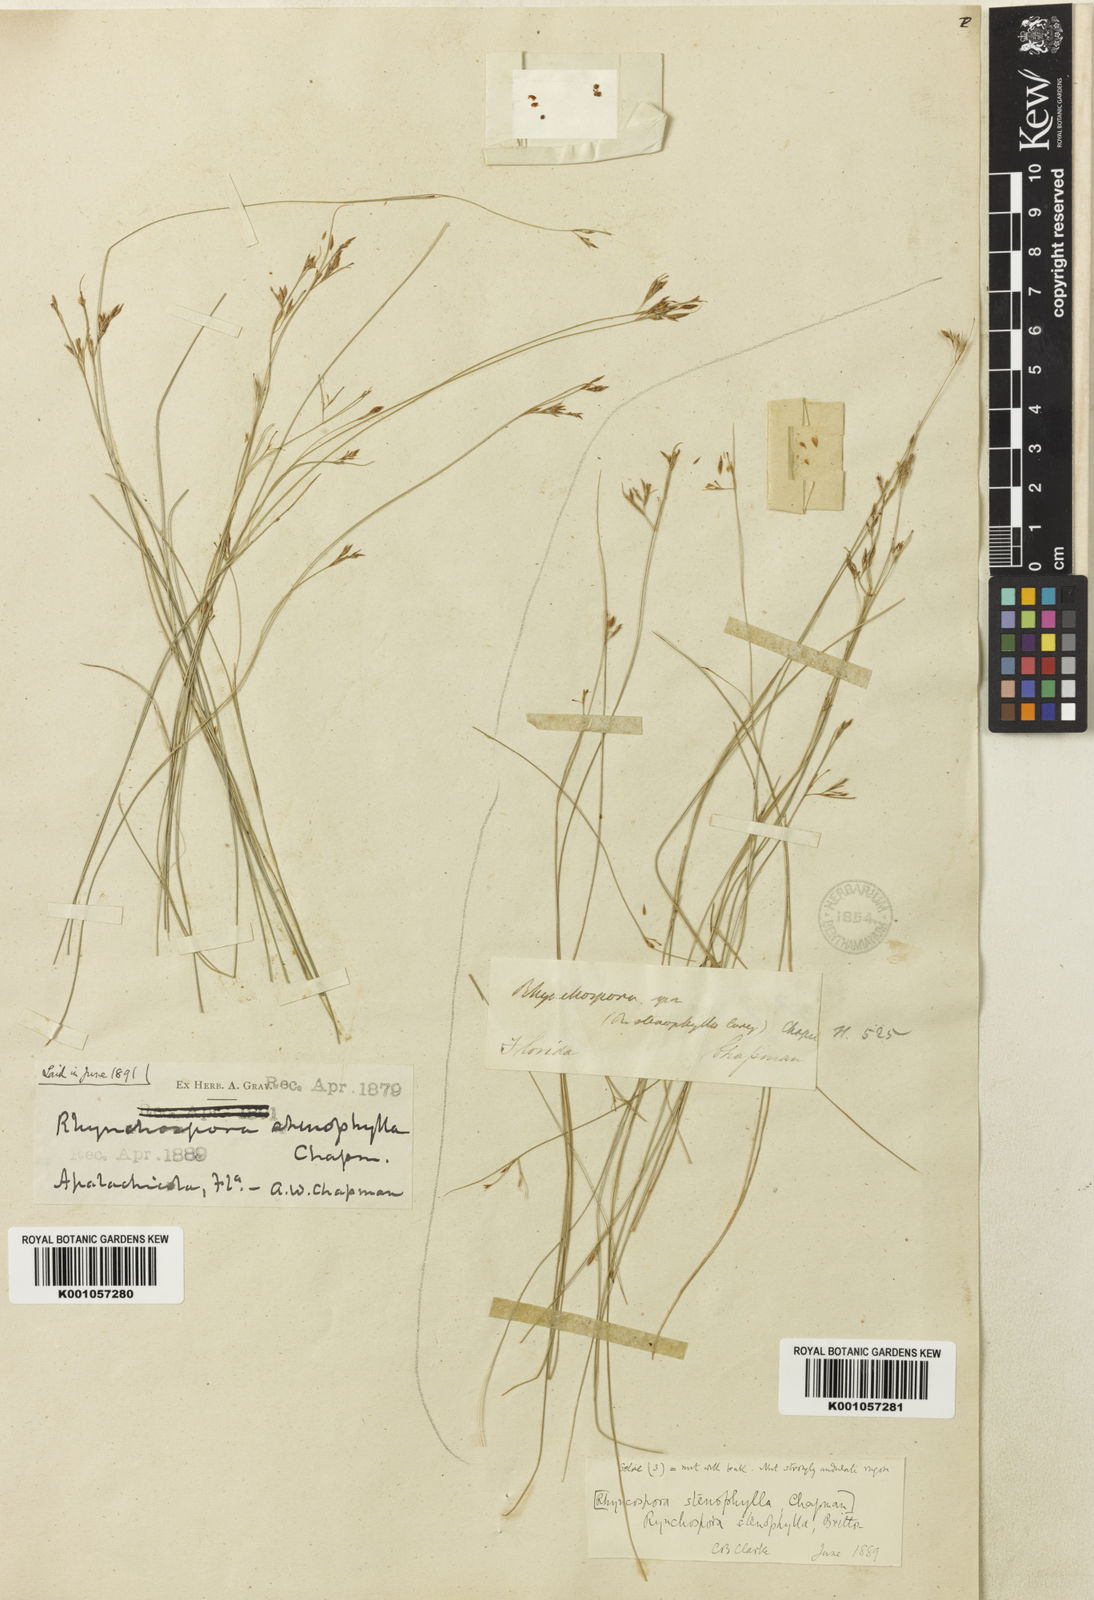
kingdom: Plantae
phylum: Tracheophyta
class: Liliopsida
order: Poales
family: Cyperaceae
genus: Rhynchospora
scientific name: Rhynchospora stenophylla
